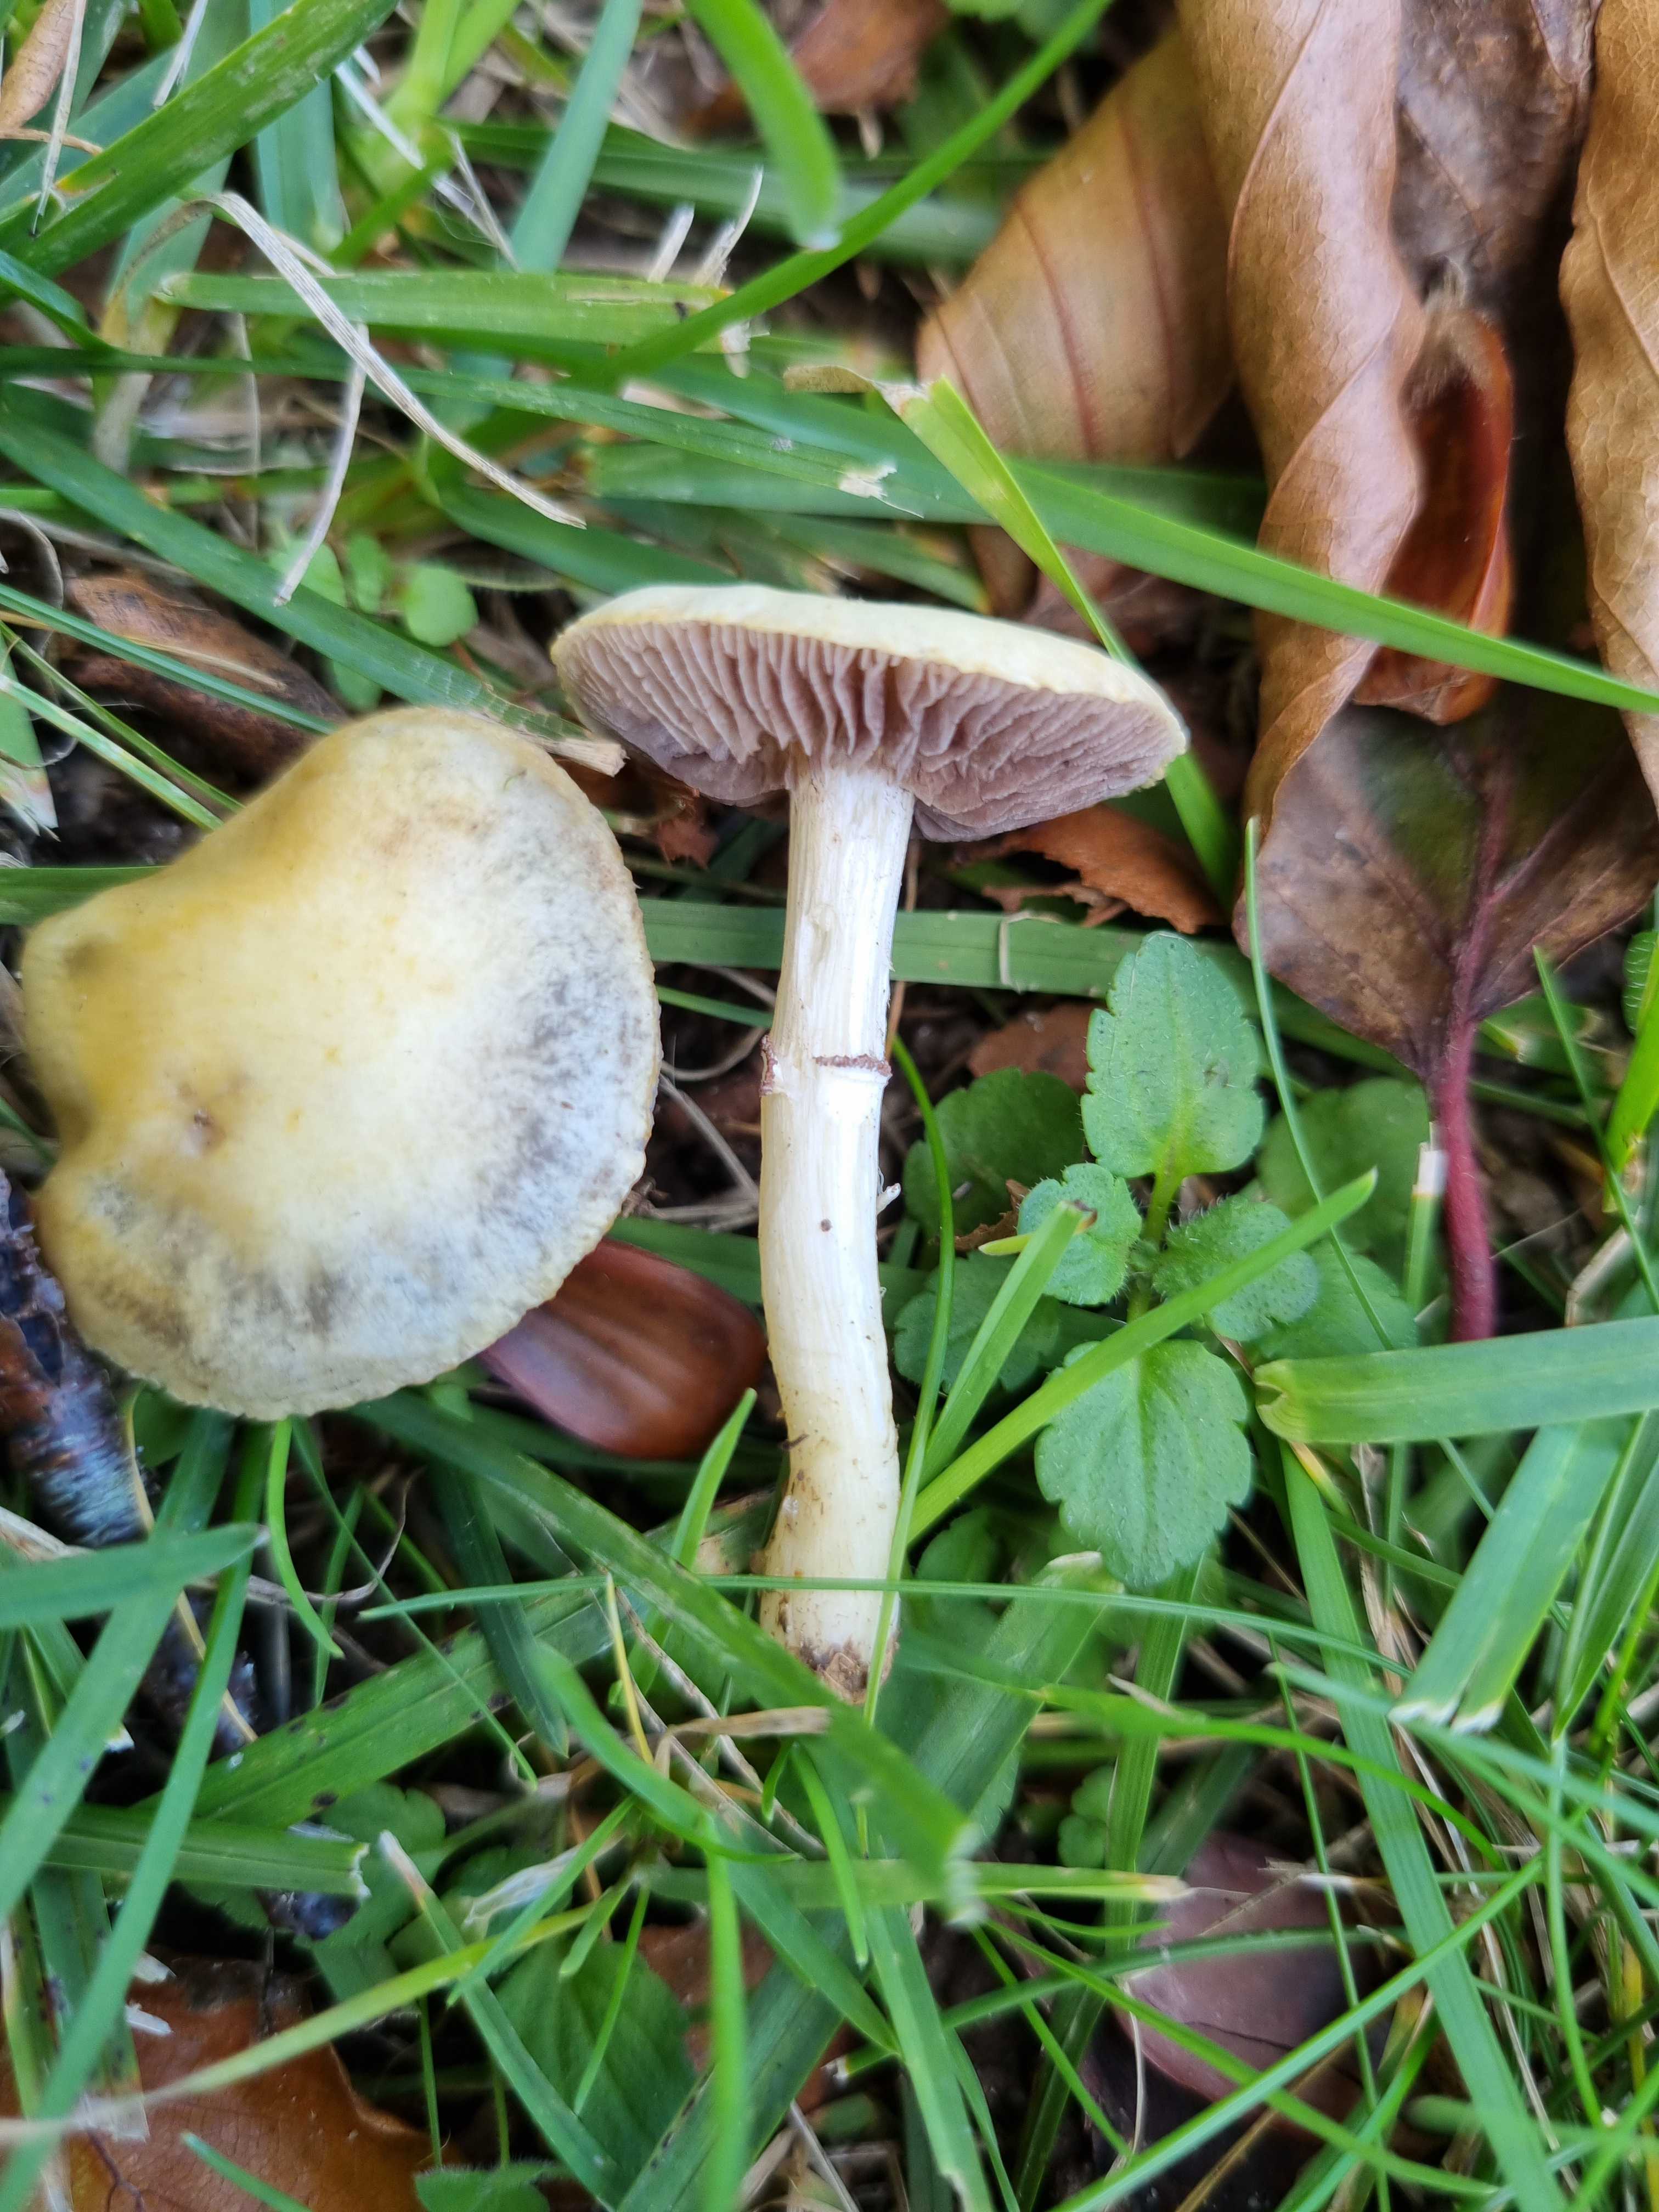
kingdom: Fungi
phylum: Basidiomycota
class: Agaricomycetes
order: Agaricales
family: Hymenogastraceae
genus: Psilocybe
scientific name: Psilocybe coronilla
